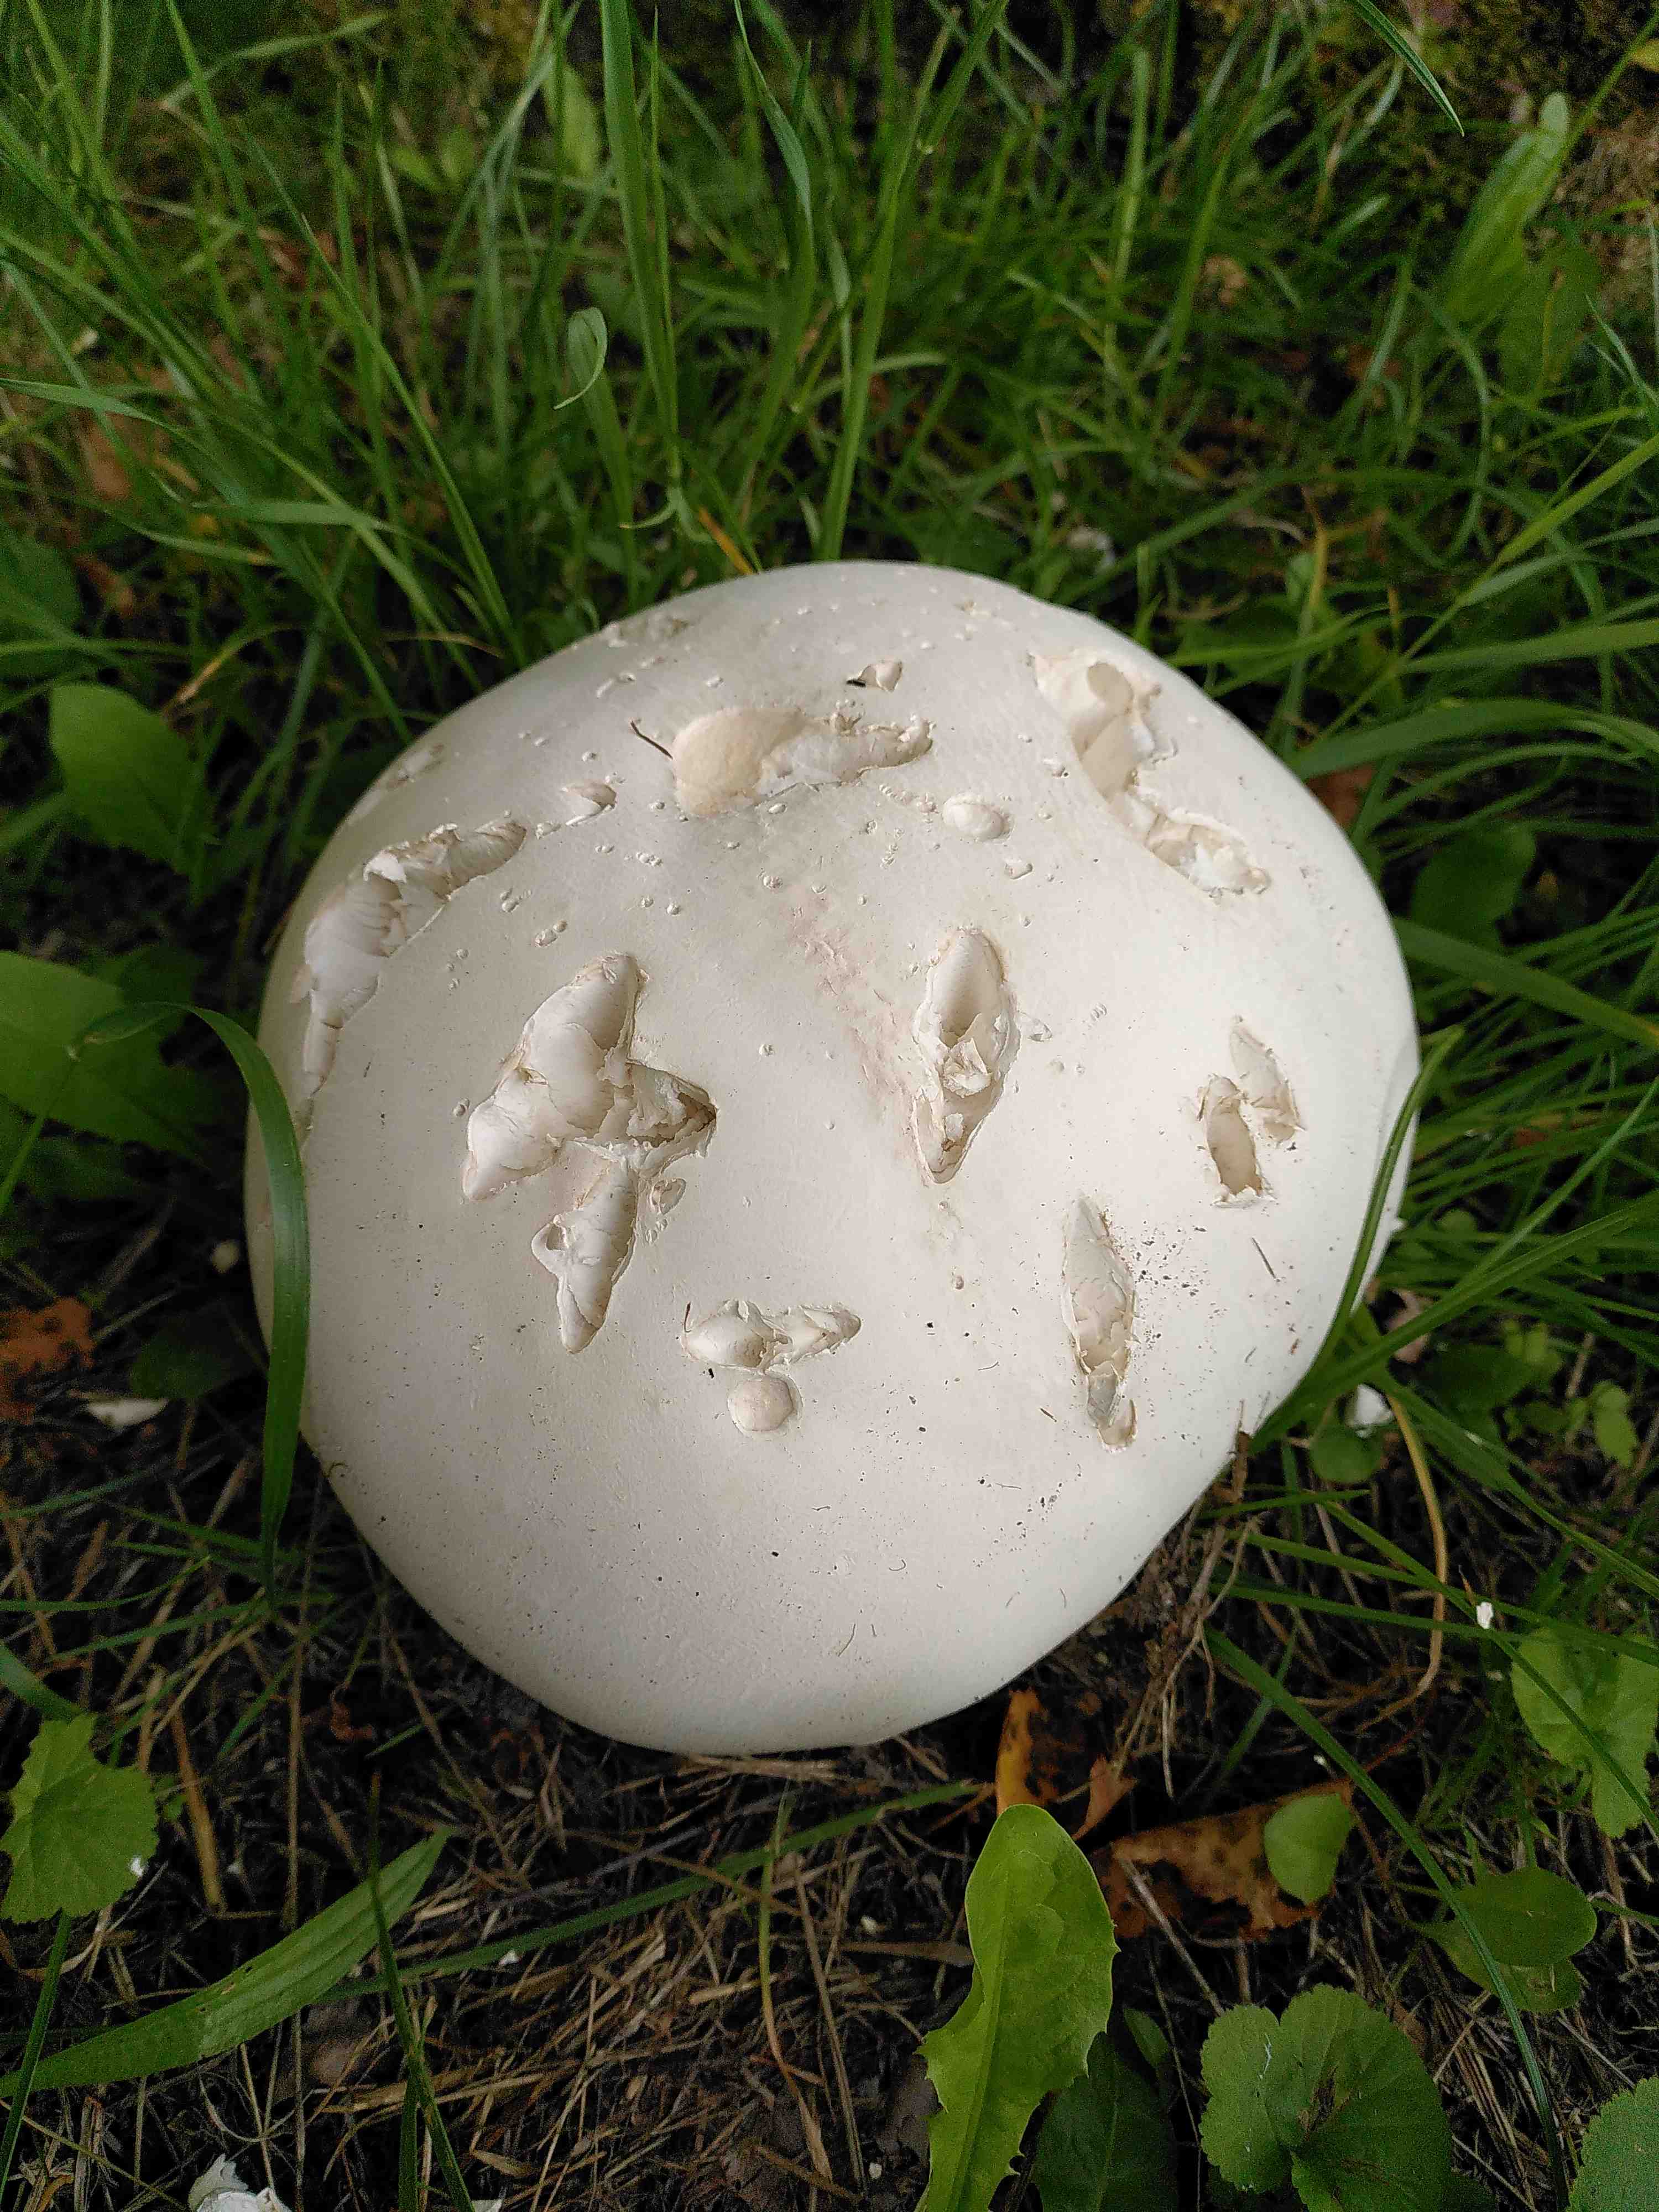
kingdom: Fungi
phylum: Basidiomycota
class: Agaricomycetes
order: Agaricales
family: Lycoperdaceae
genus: Calvatia
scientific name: Calvatia gigantea
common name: kæmpestøvbold
